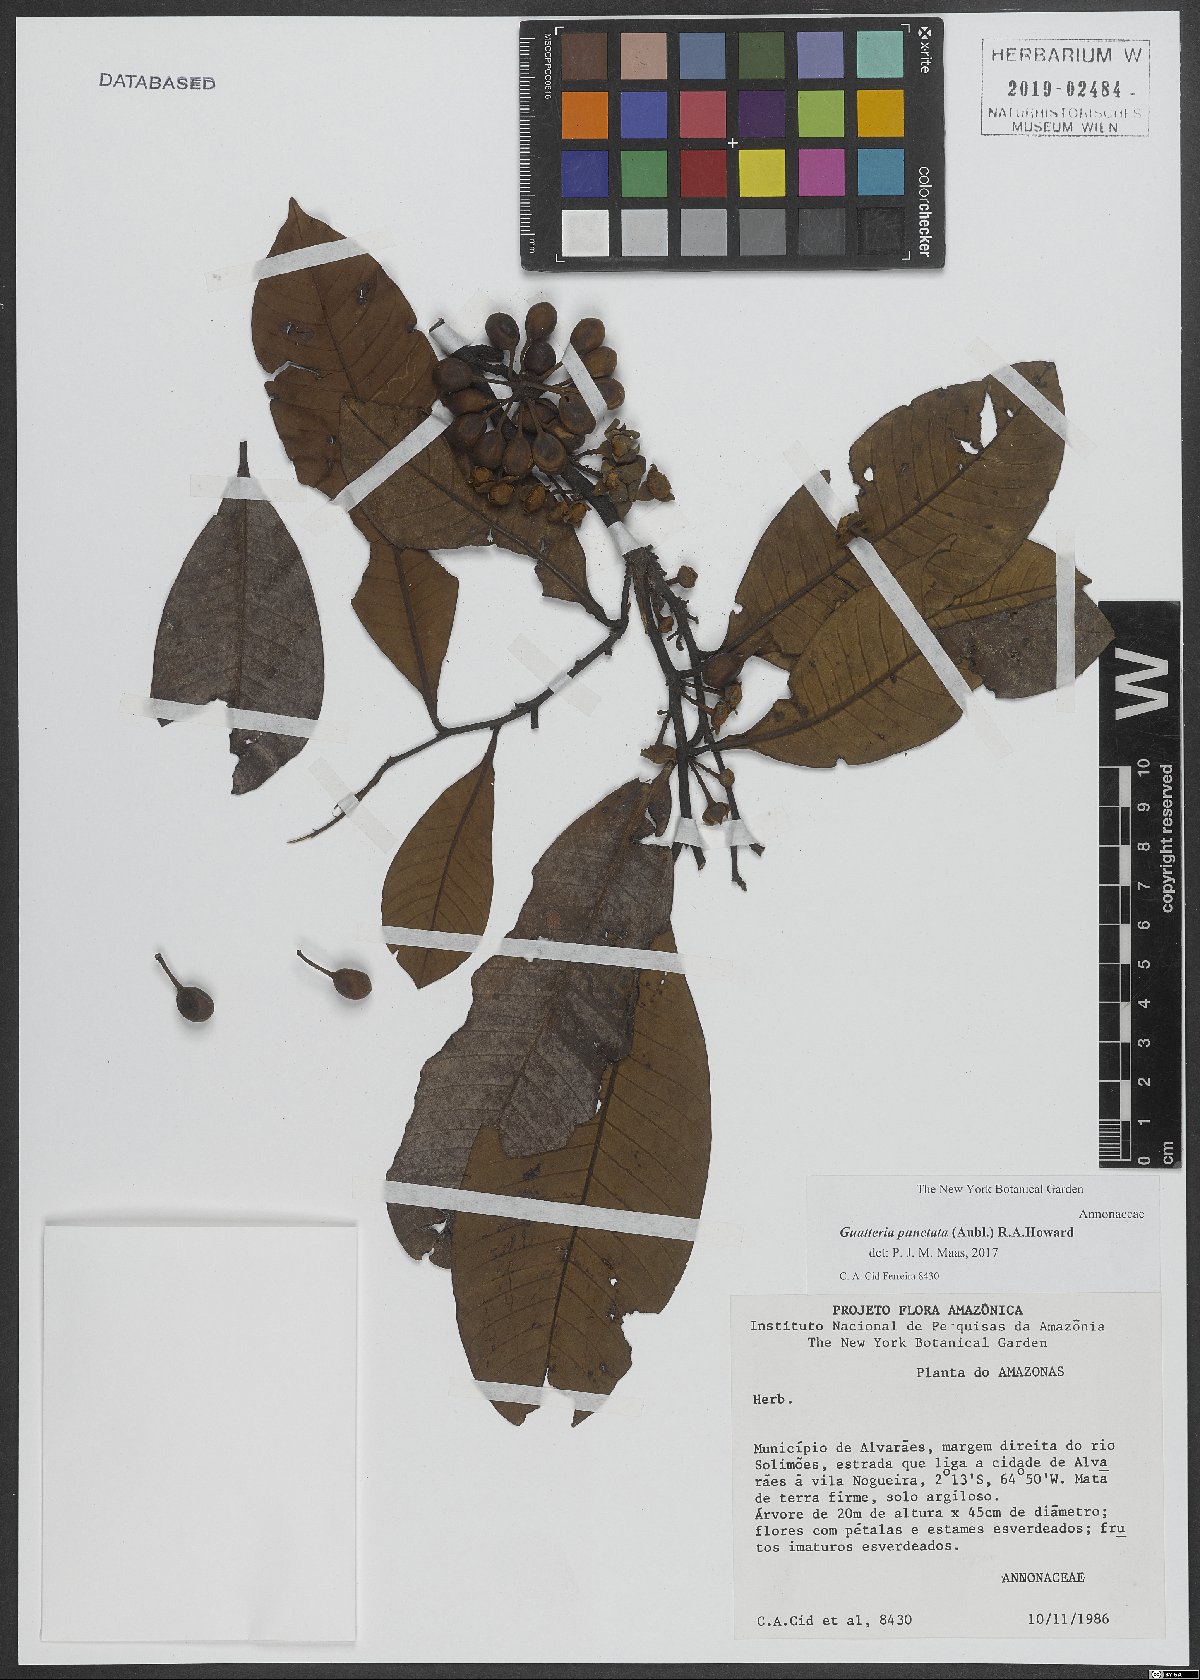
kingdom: Plantae
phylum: Tracheophyta
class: Magnoliopsida
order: Magnoliales
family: Annonaceae
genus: Guatteria
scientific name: Guatteria punctata
